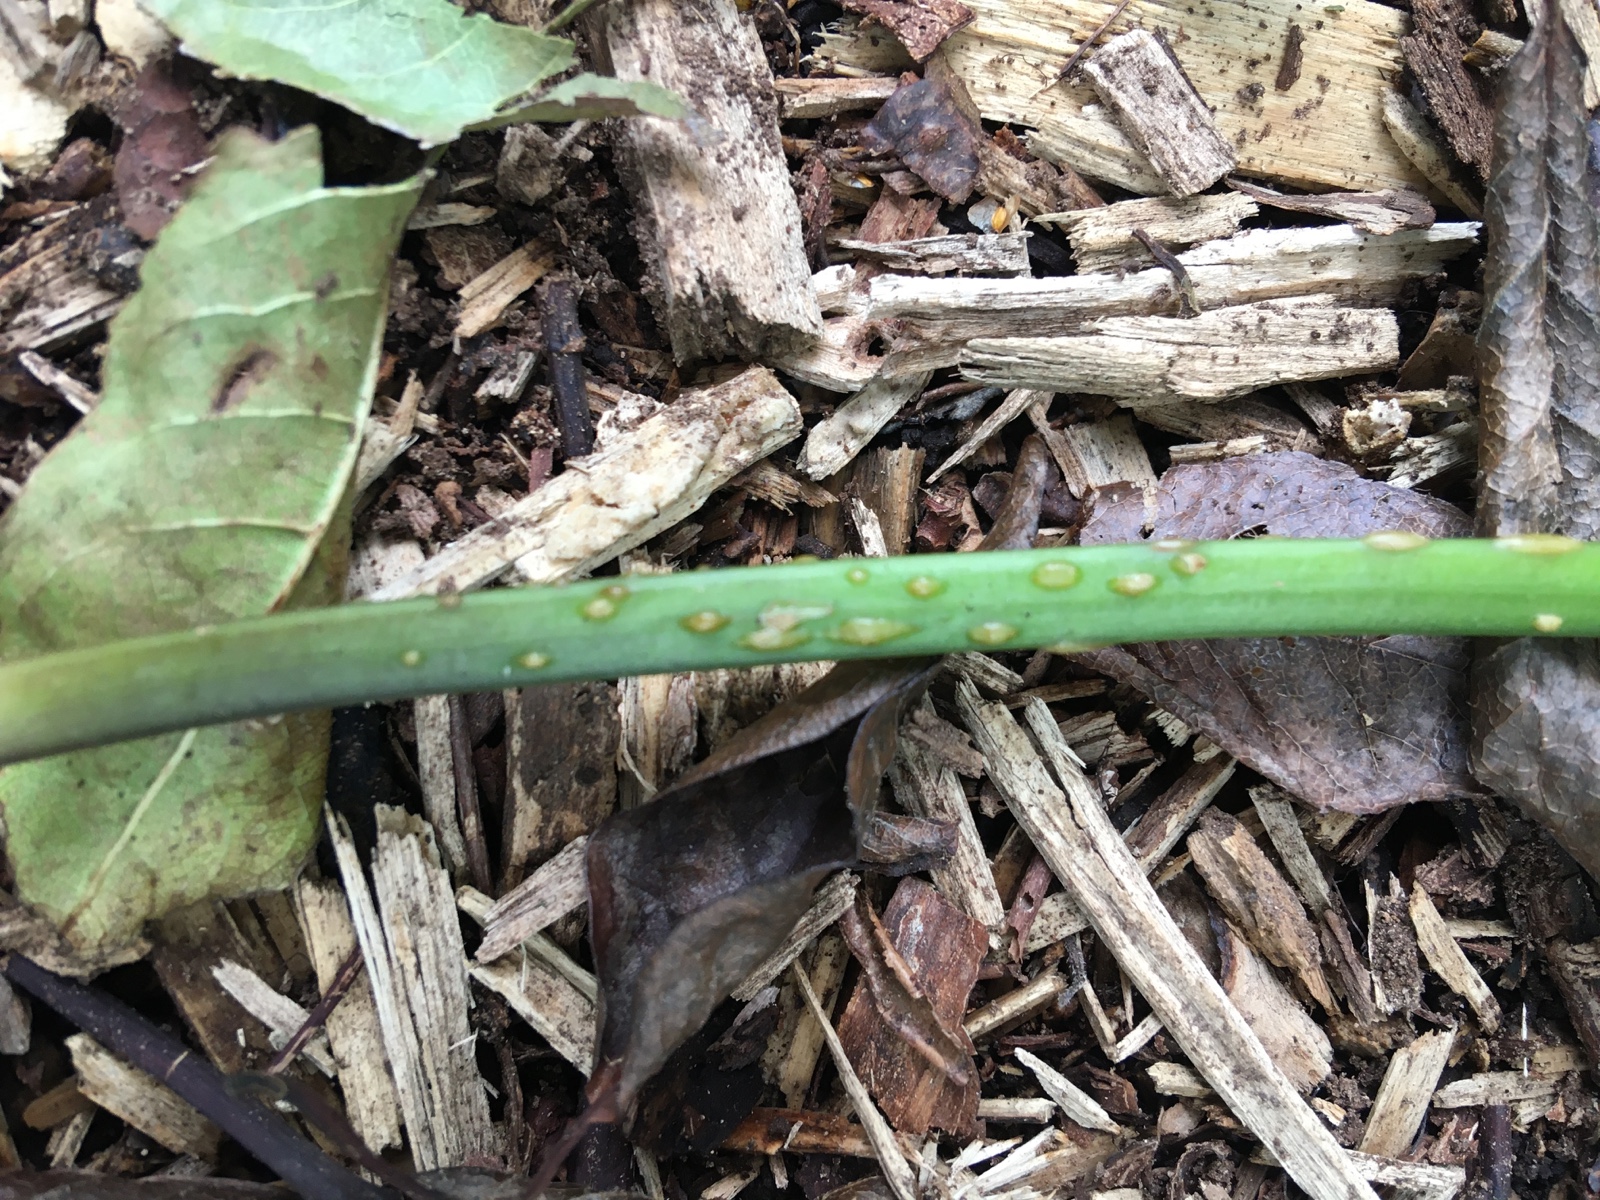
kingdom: Fungi
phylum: Ascomycota
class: Taphrinomycetes
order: Taphrinales
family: Taphrinaceae
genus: Protomyces
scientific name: Protomyces macrosporus
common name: skvalderkål-vablesæk
